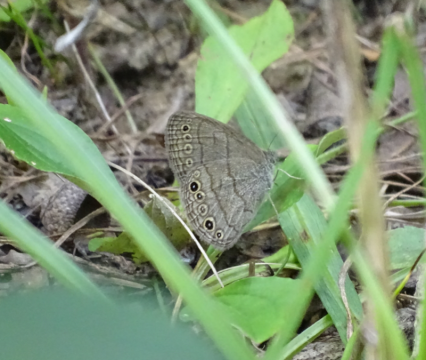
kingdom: Animalia
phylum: Arthropoda
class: Insecta
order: Lepidoptera
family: Nymphalidae
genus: Hermeuptychia
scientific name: Hermeuptychia hermes
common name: Carolina Satyr
